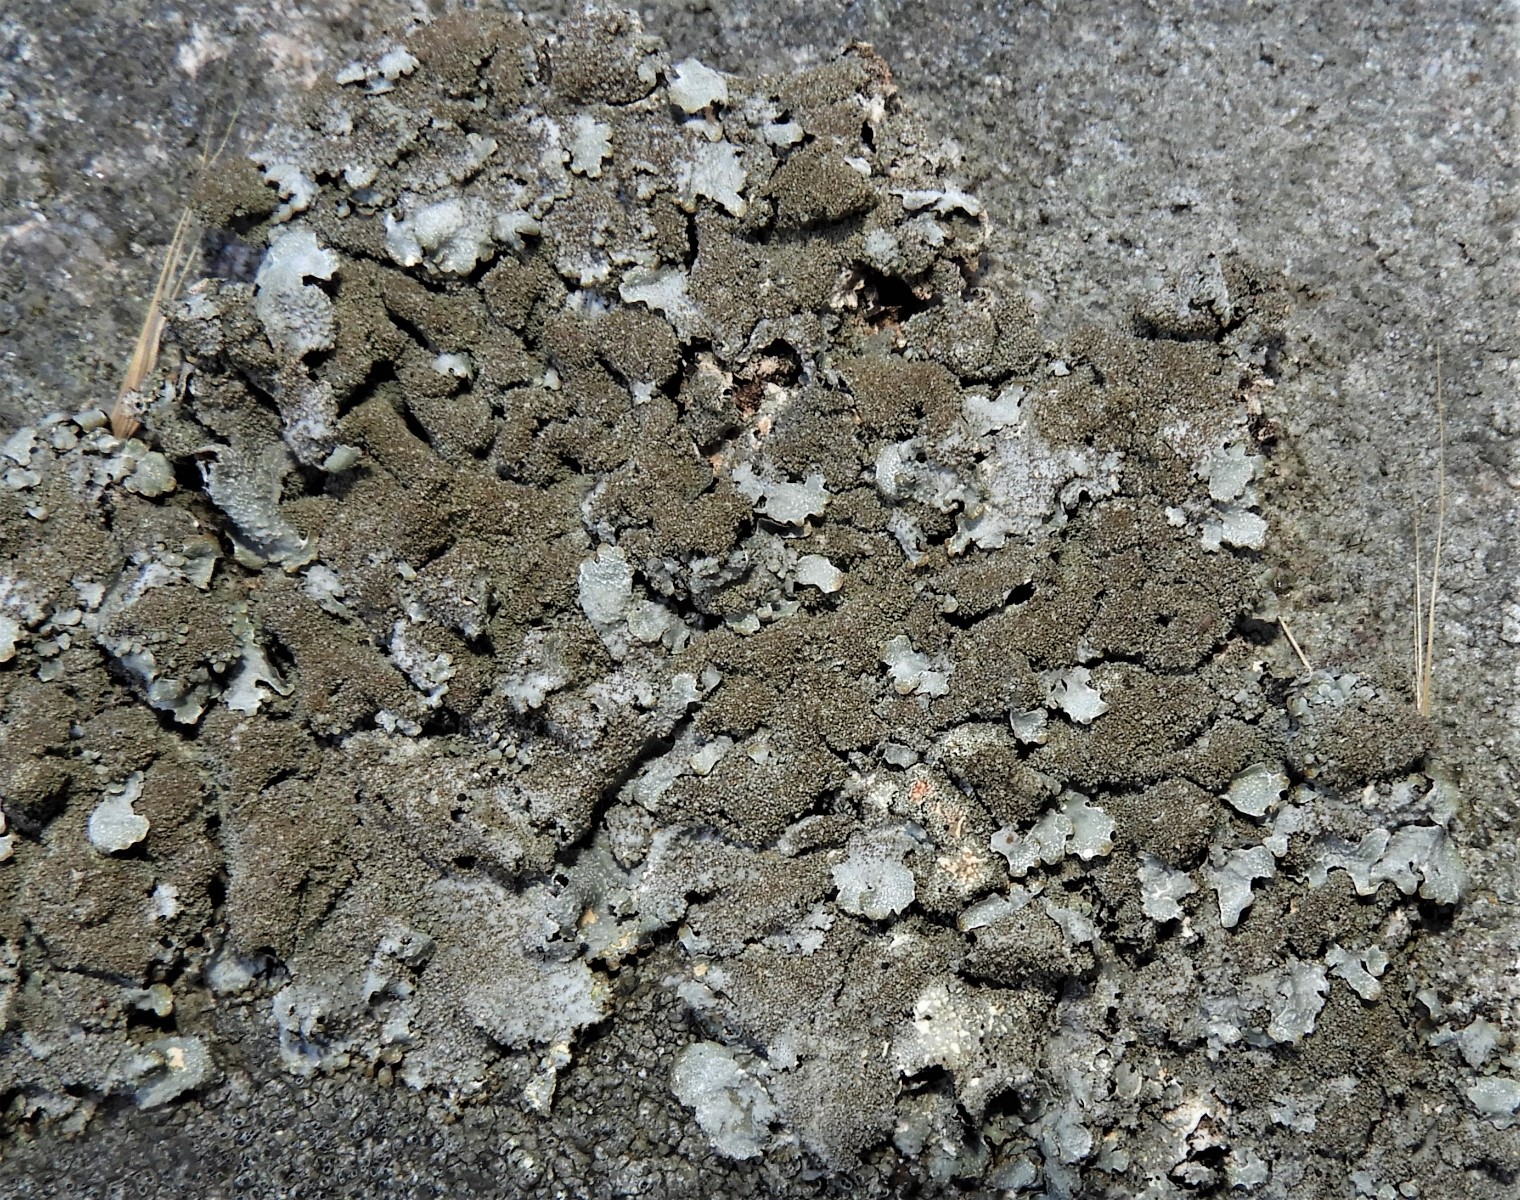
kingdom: Fungi
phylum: Ascomycota
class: Lecanoromycetes
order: Lecanorales
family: Parmeliaceae
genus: Parmelia
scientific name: Parmelia saxatilis
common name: farve-skållav
